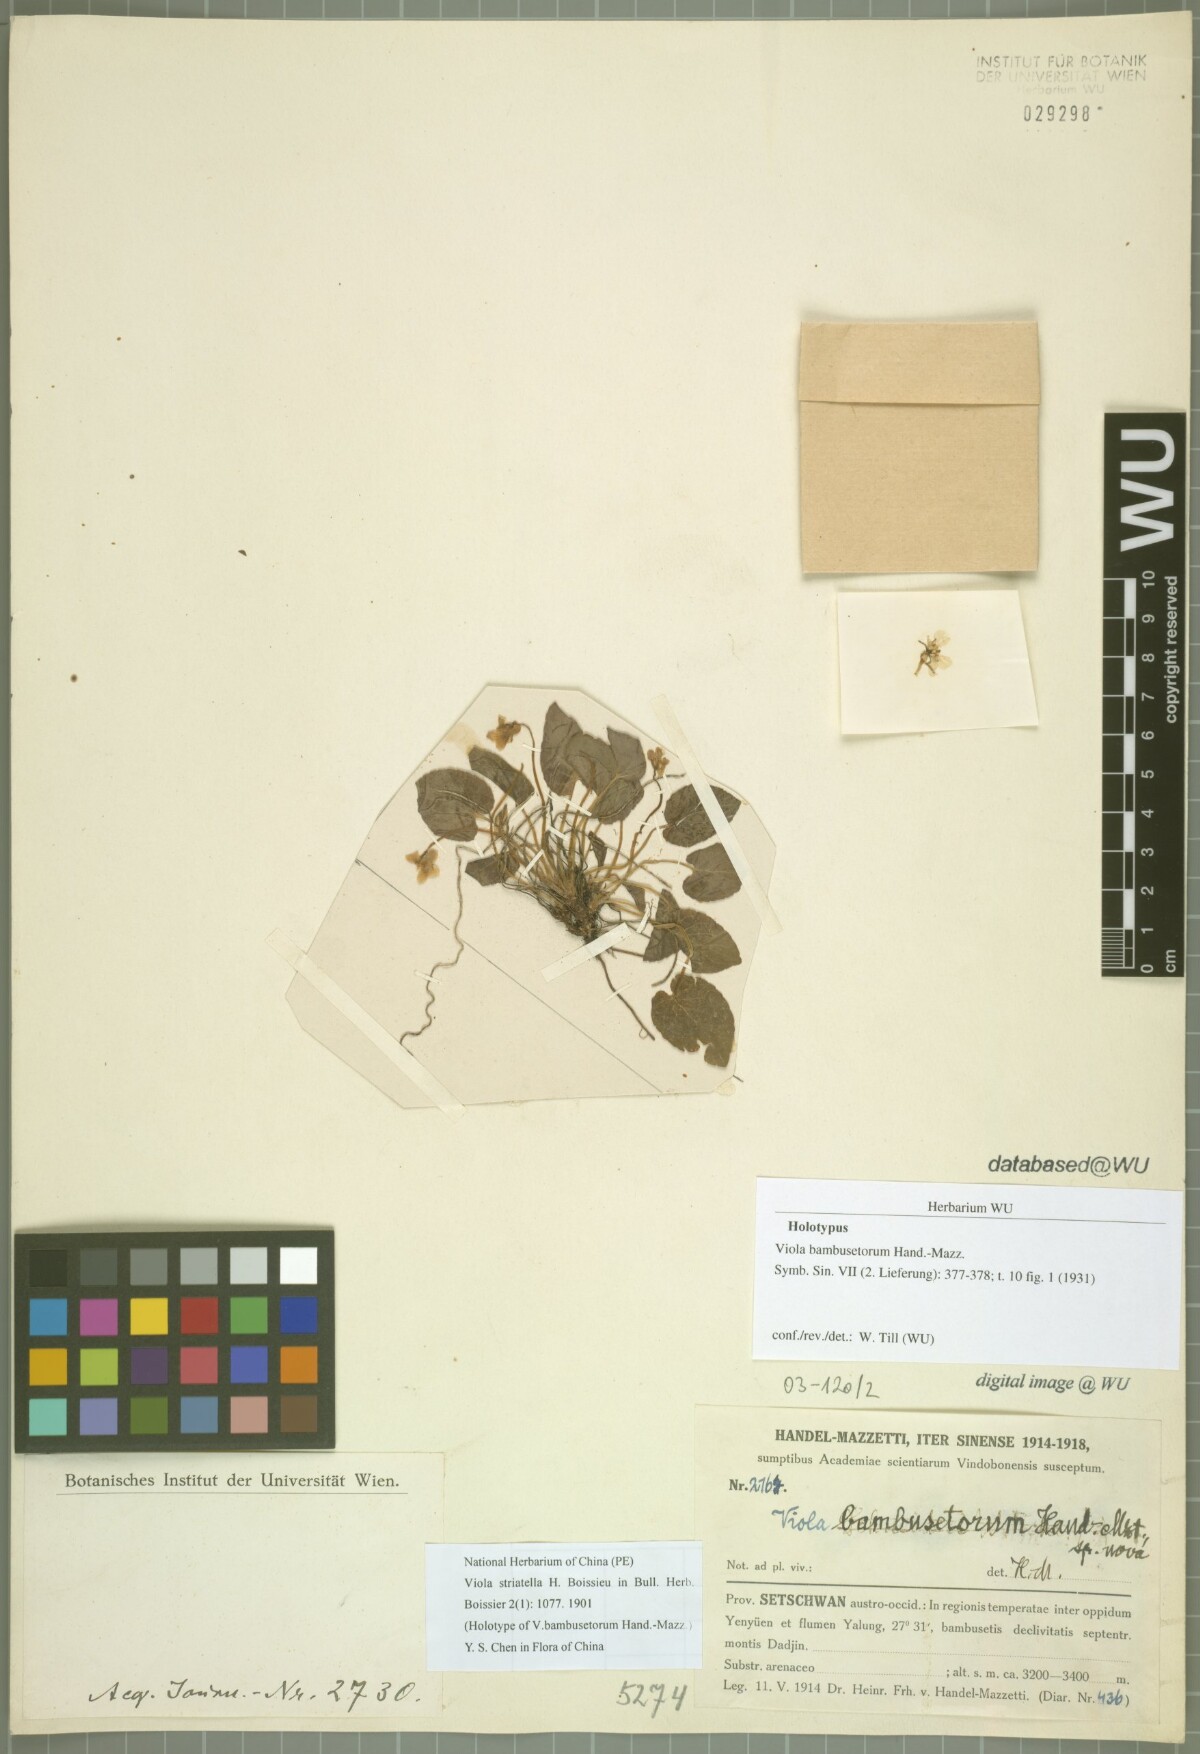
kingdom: Plantae
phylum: Tracheophyta
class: Magnoliopsida
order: Malpighiales
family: Violaceae
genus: Viola
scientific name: Viola bambusetorum
